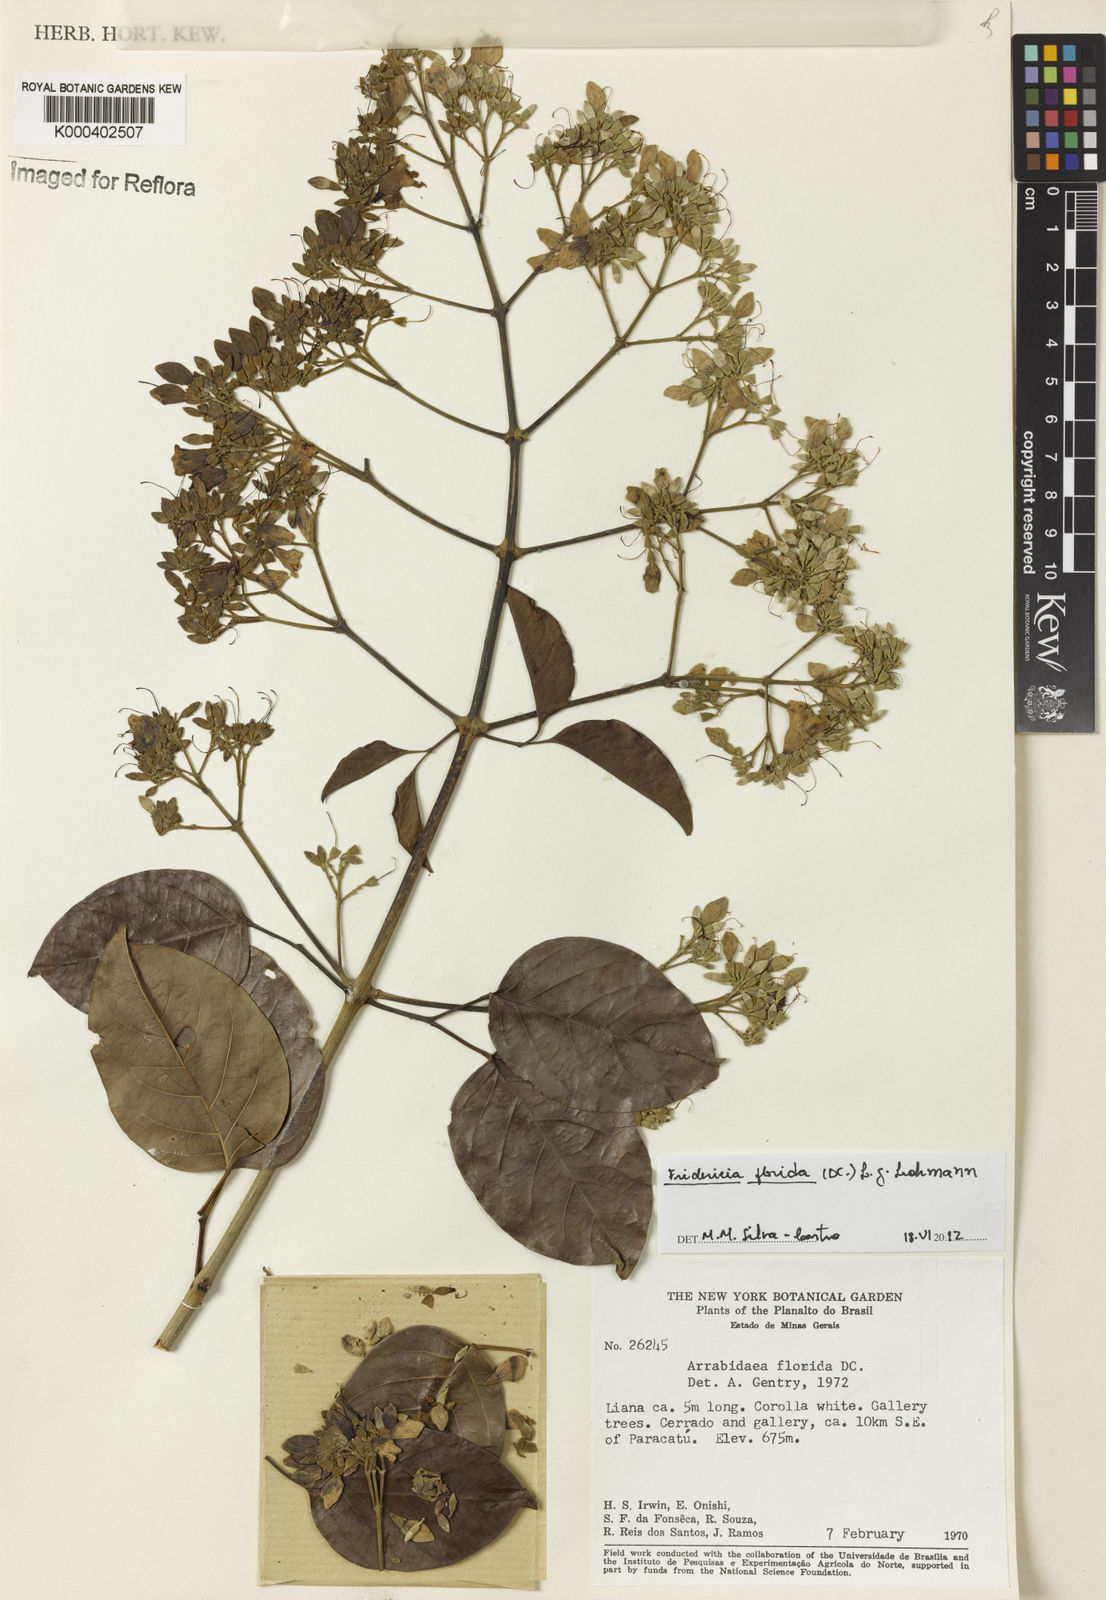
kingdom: Plantae
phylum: Tracheophyta
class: Magnoliopsida
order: Lamiales
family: Bignoniaceae
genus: Fridericia
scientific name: Fridericia florida
